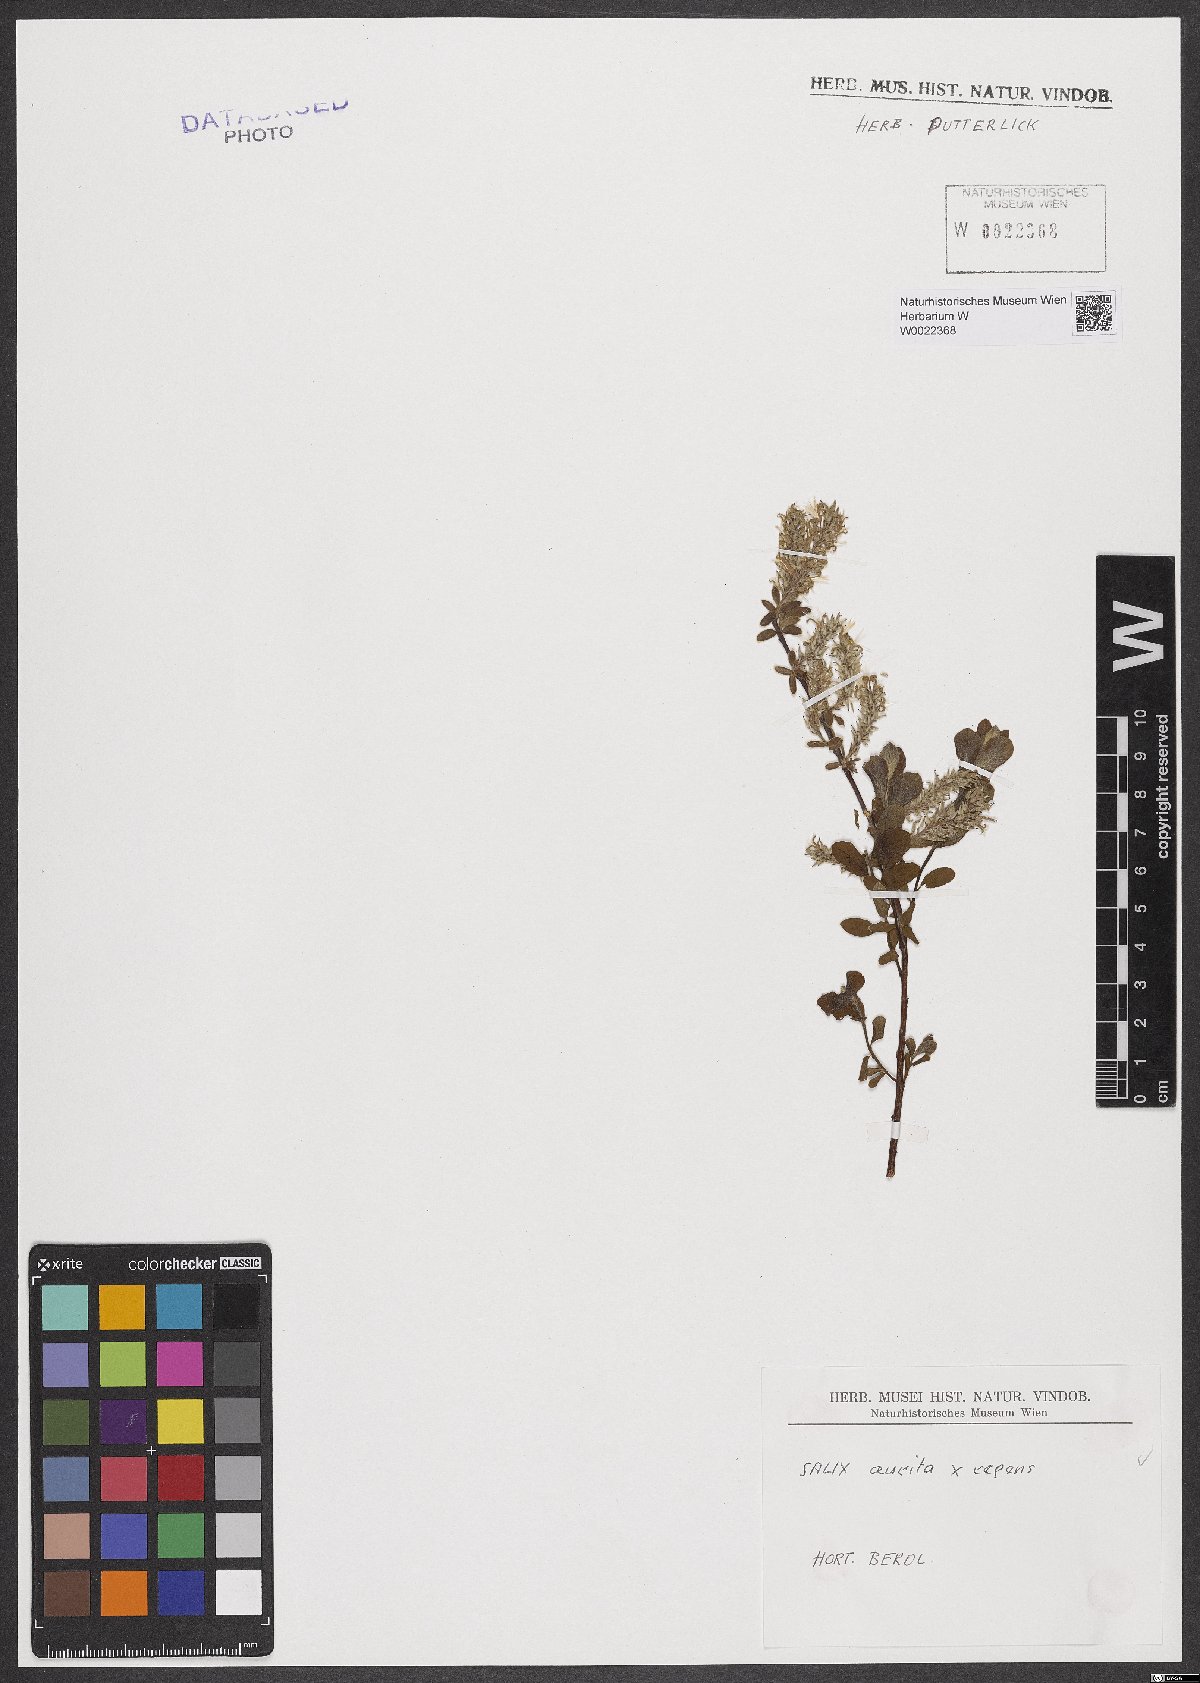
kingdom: Plantae
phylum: Tracheophyta
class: Magnoliopsida
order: Malpighiales
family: Salicaceae
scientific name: Salicaceae
